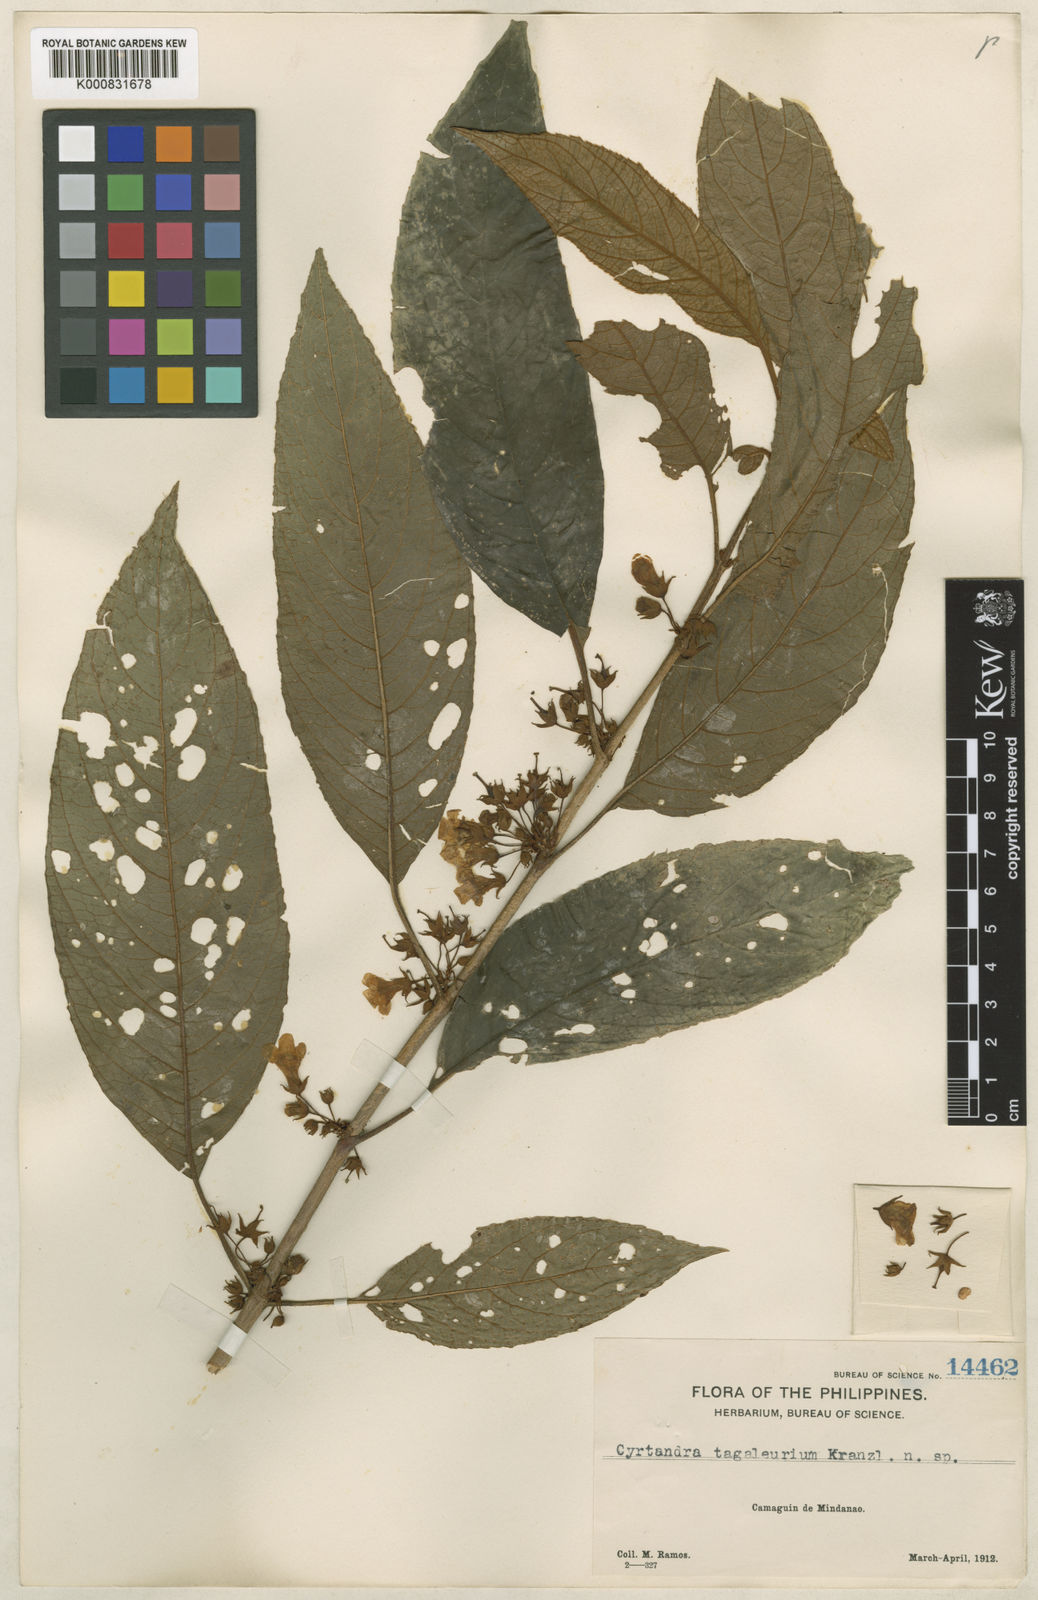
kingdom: Plantae
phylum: Tracheophyta
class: Magnoliopsida
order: Lamiales
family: Gesneriaceae
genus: Cyrtandra
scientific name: Cyrtandra tagaleurium
